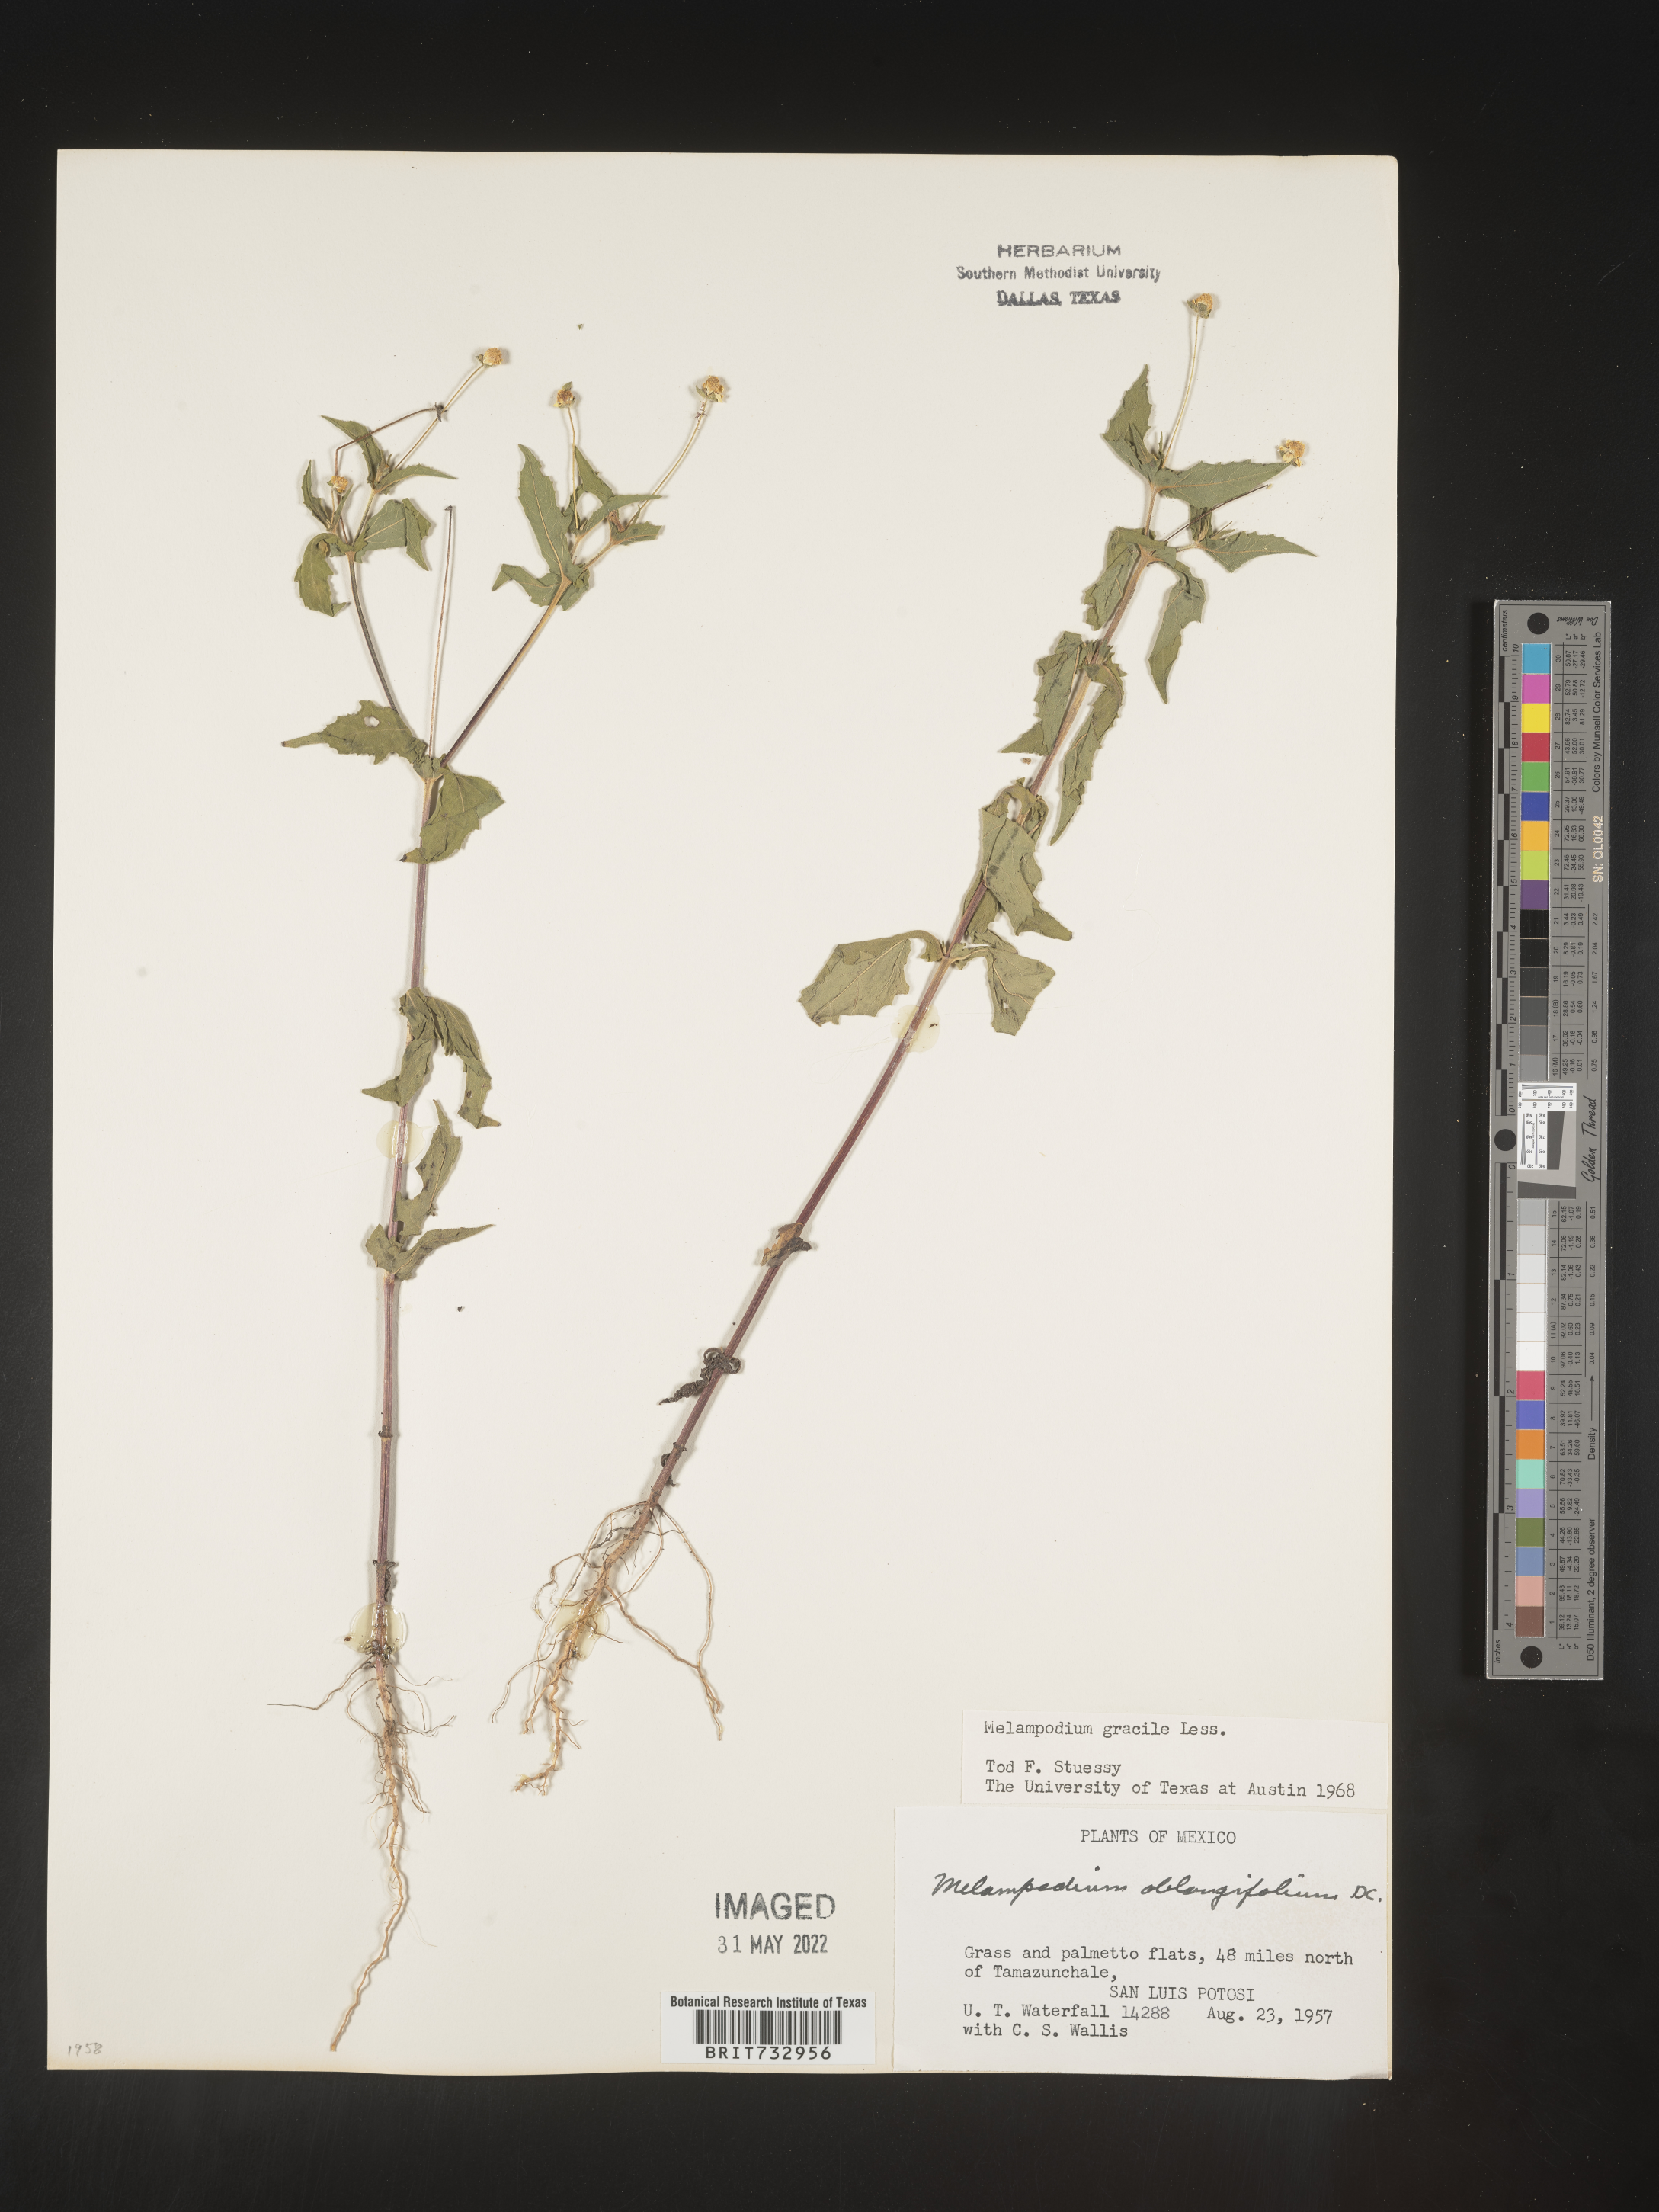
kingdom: Plantae
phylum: Tracheophyta
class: Magnoliopsida
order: Asterales
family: Asteraceae
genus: Melampodium
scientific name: Melampodium gracile
